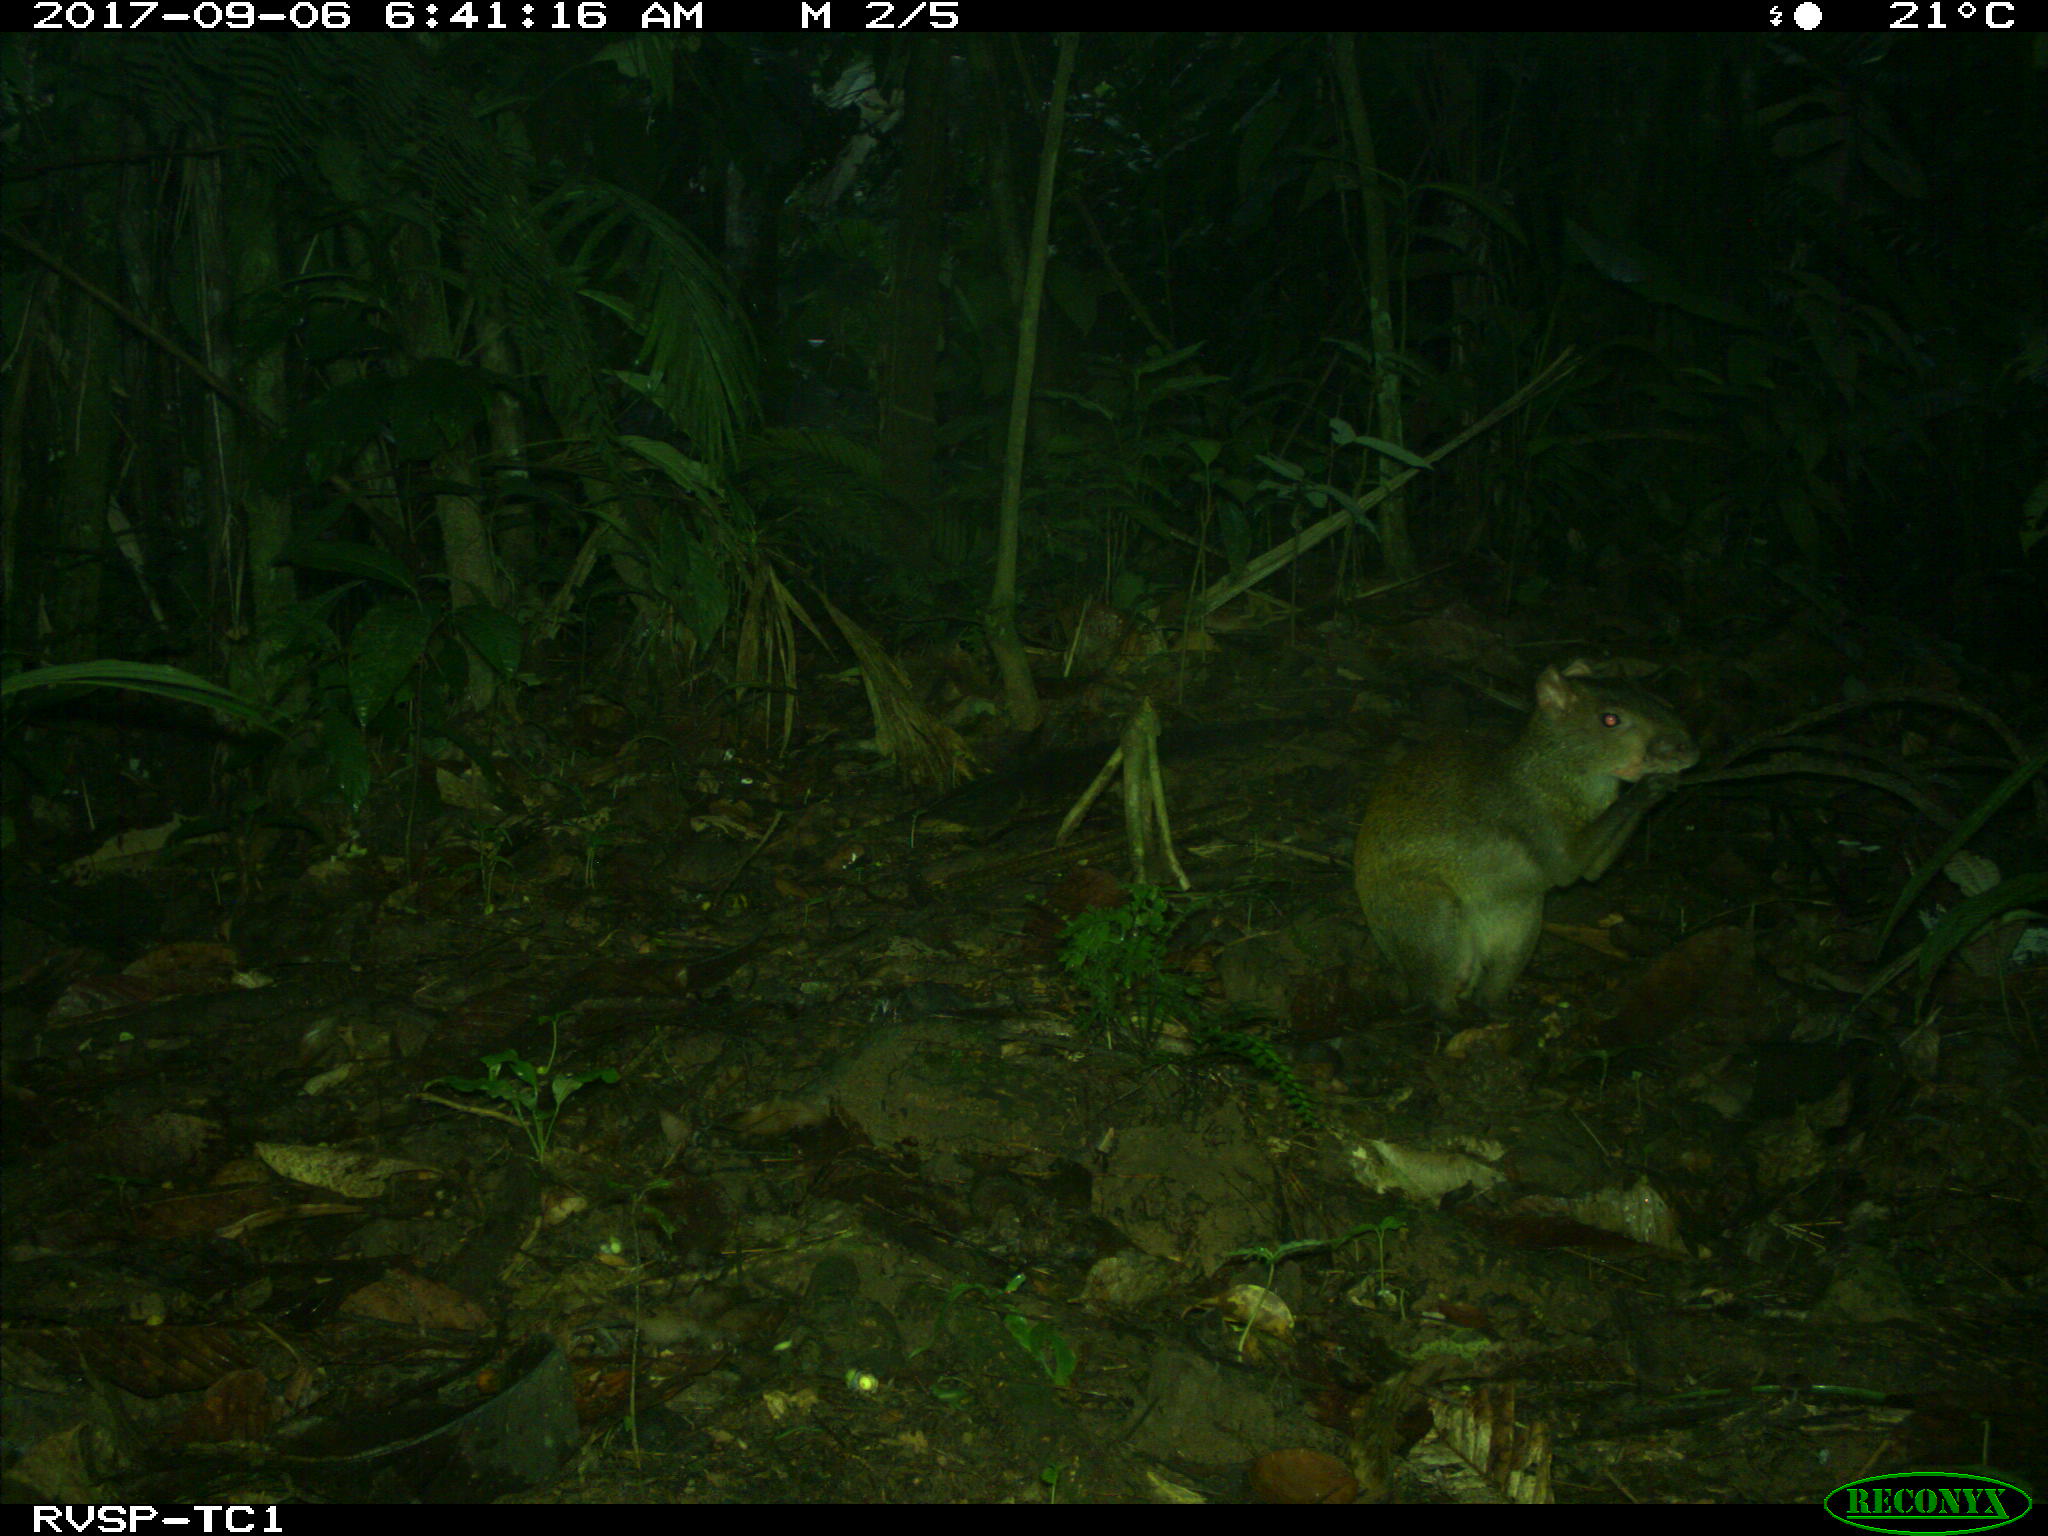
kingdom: Animalia
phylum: Chordata
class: Mammalia
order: Rodentia
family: Dasyproctidae
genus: Dasyprocta
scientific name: Dasyprocta punctata
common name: Central american agouti
